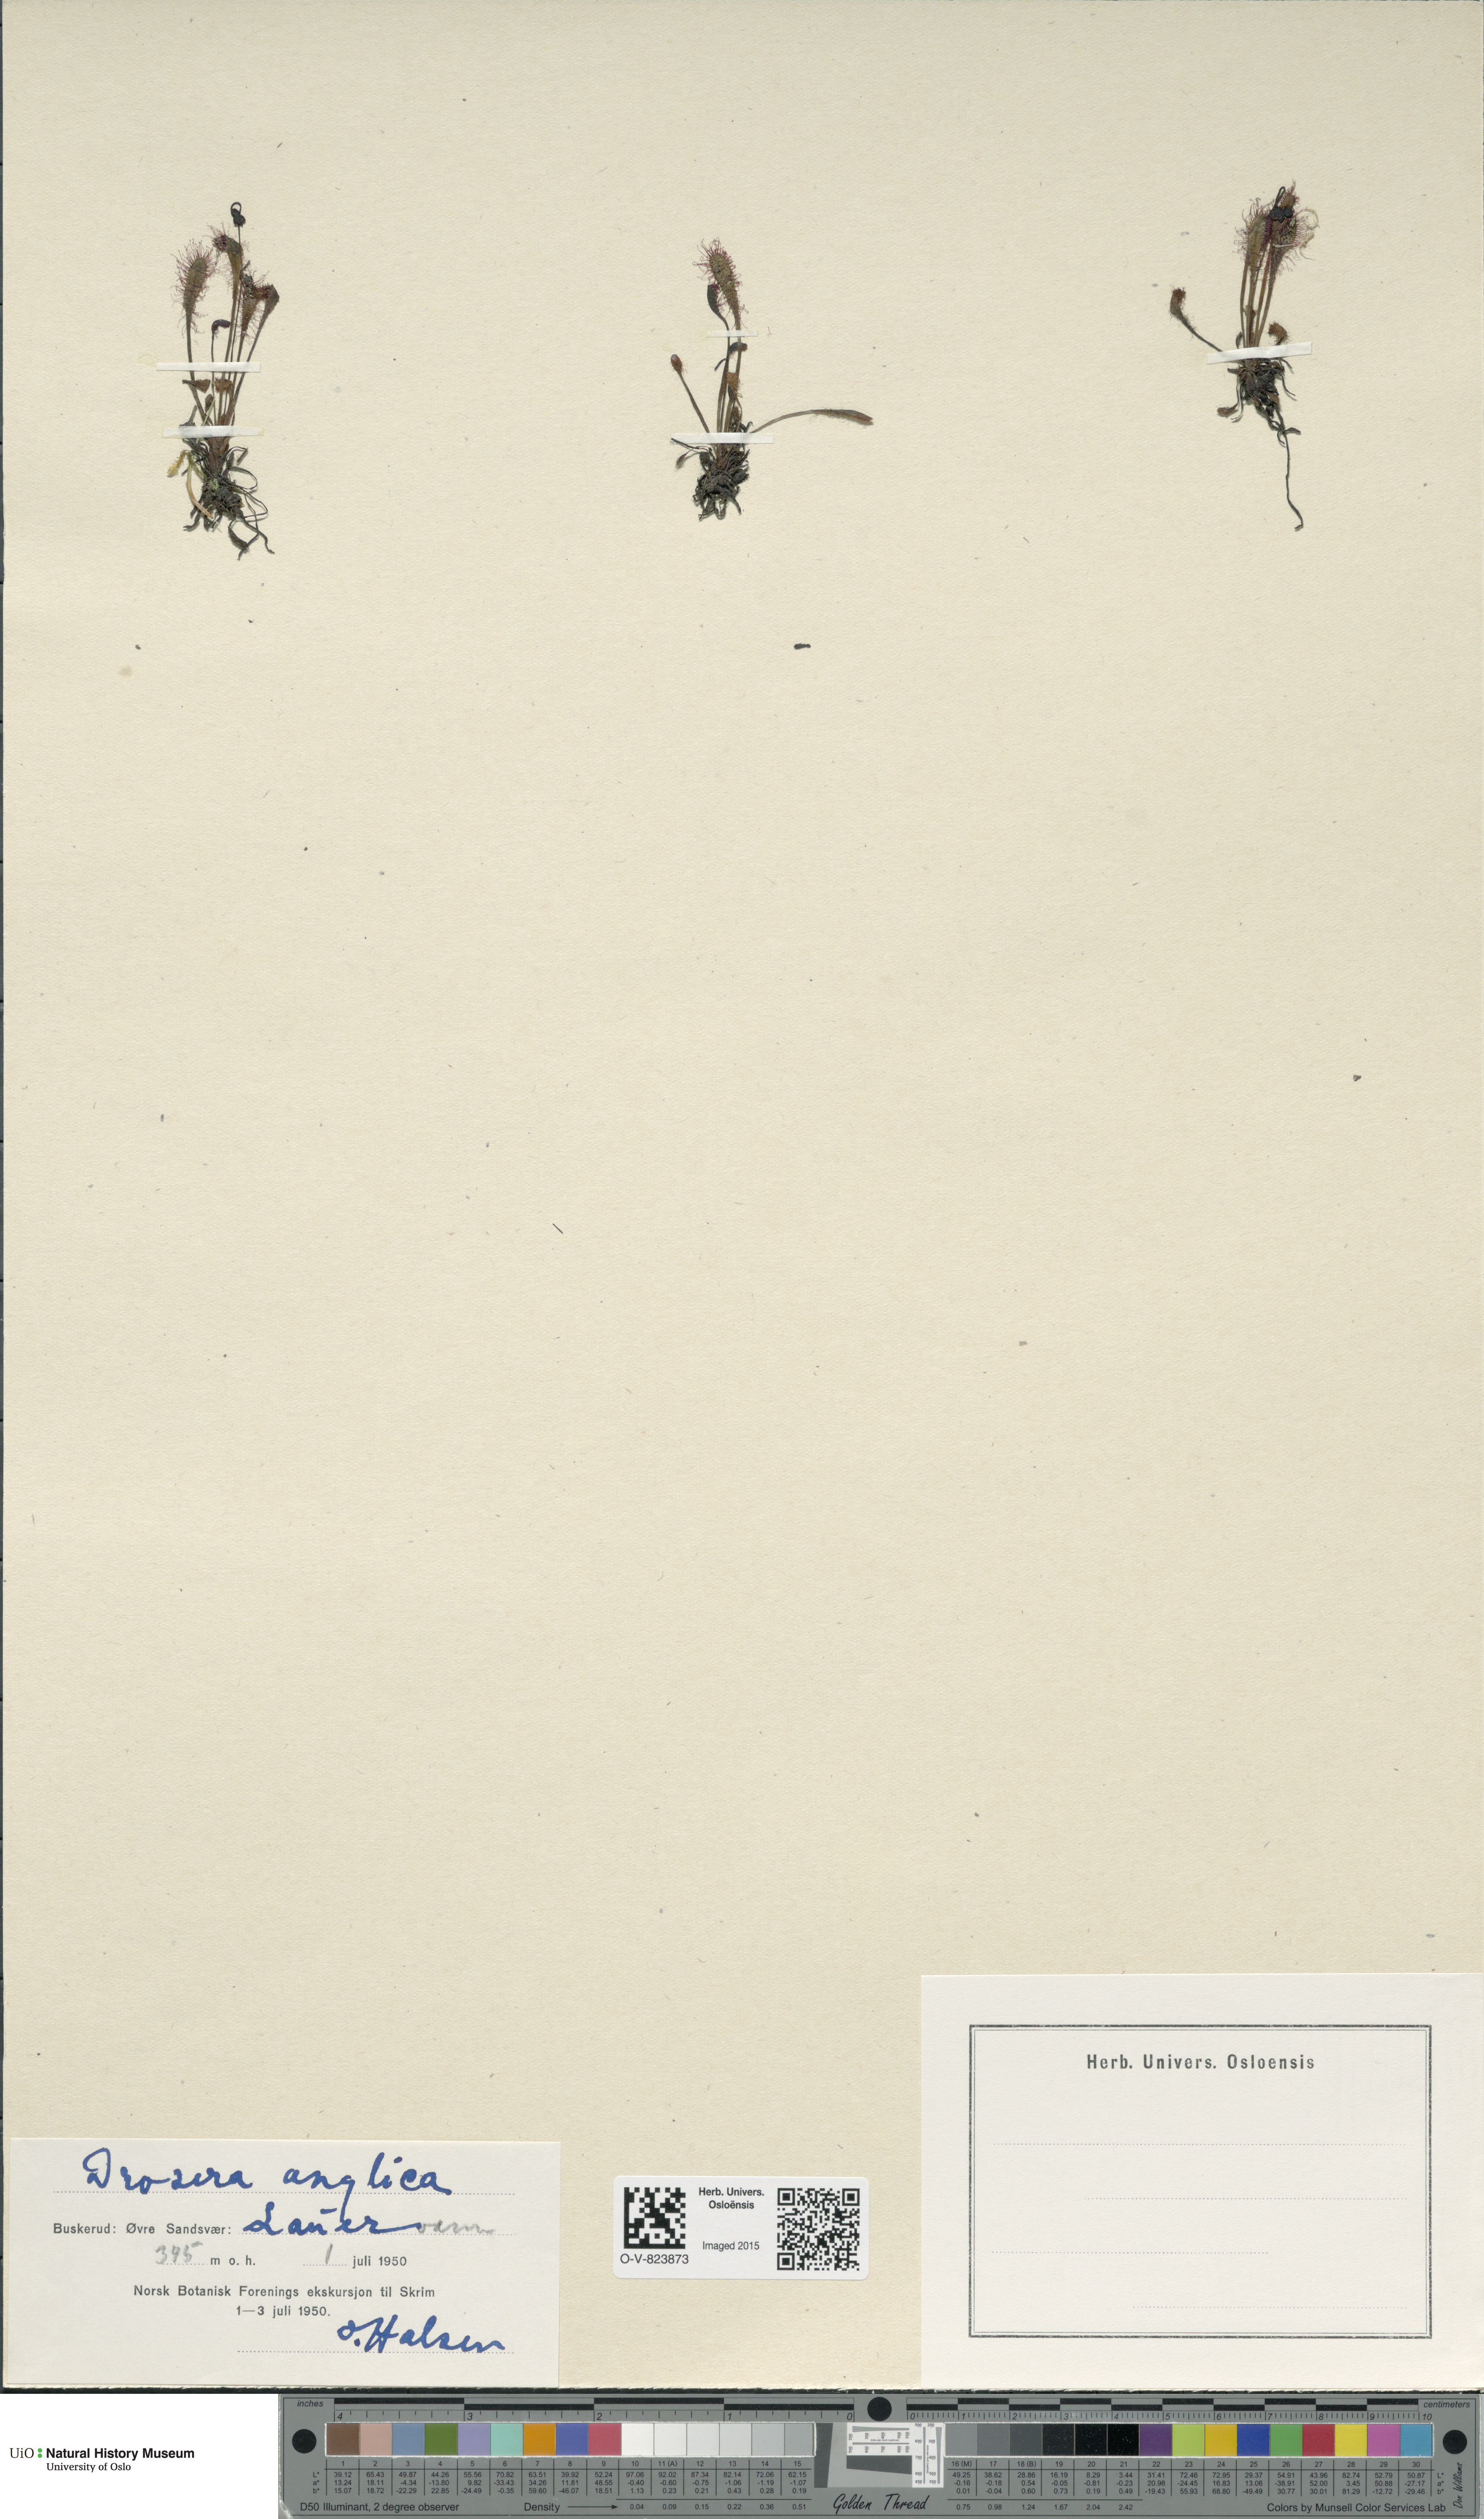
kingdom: Plantae
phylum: Tracheophyta
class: Magnoliopsida
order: Caryophyllales
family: Droseraceae
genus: Drosera
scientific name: Drosera anglica
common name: Great sundew
